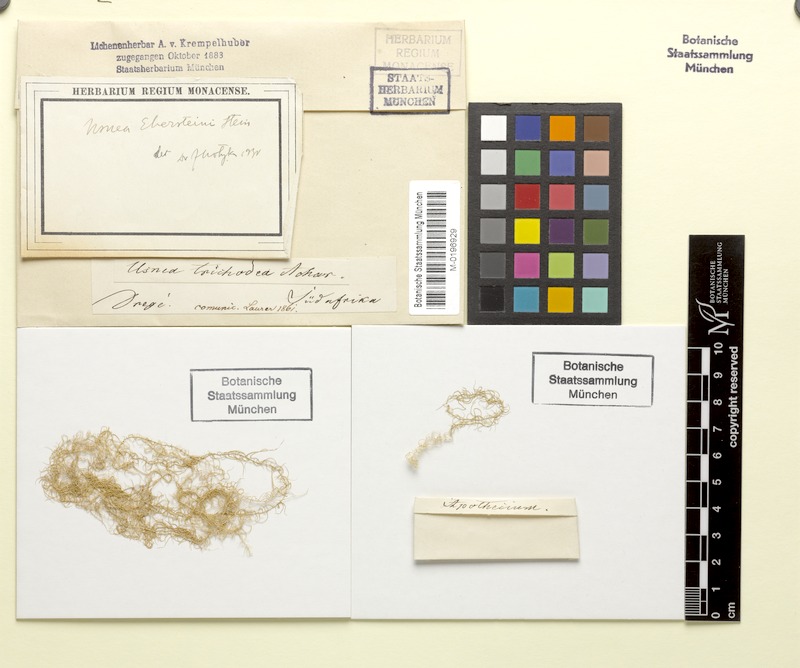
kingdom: Fungi
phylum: Ascomycota
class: Lecanoromycetes
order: Lecanorales
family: Parmeliaceae
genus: Dolichousnea
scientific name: Dolichousnea trichodeoides
